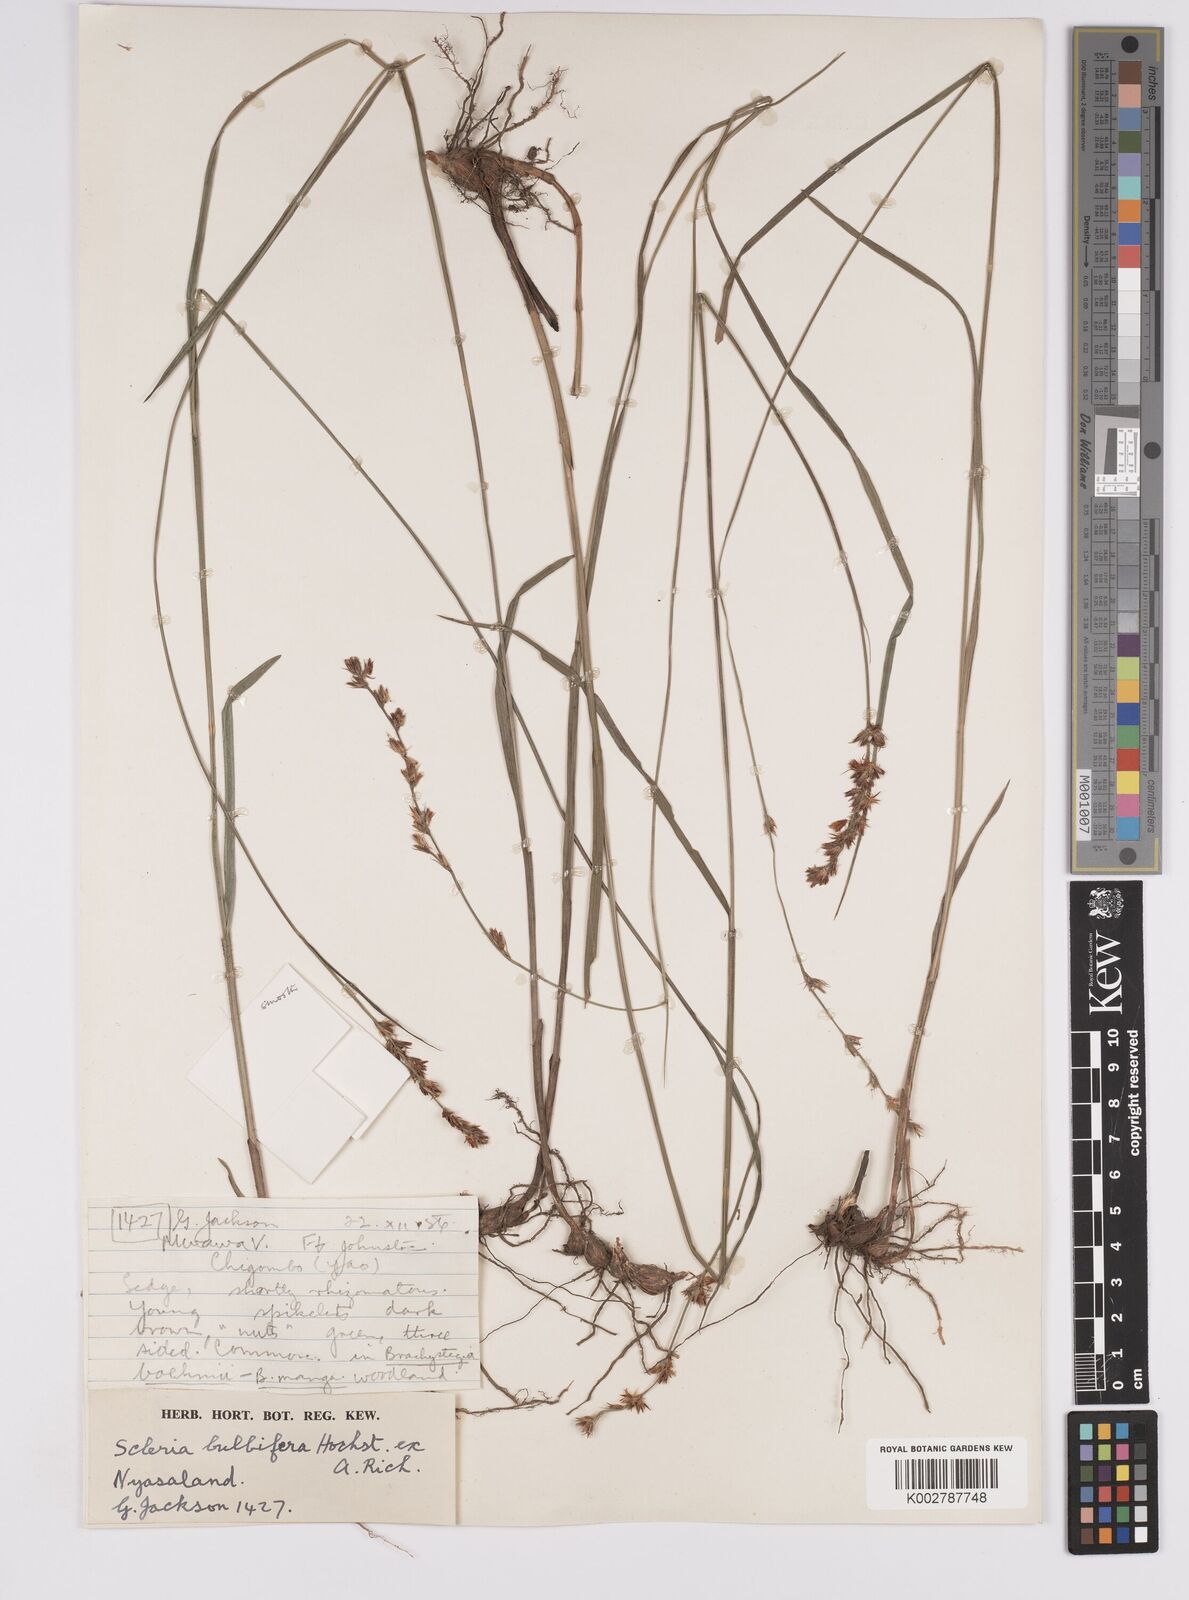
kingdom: Plantae
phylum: Tracheophyta
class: Liliopsida
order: Poales
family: Cyperaceae
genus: Scleria
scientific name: Scleria bulbifera
